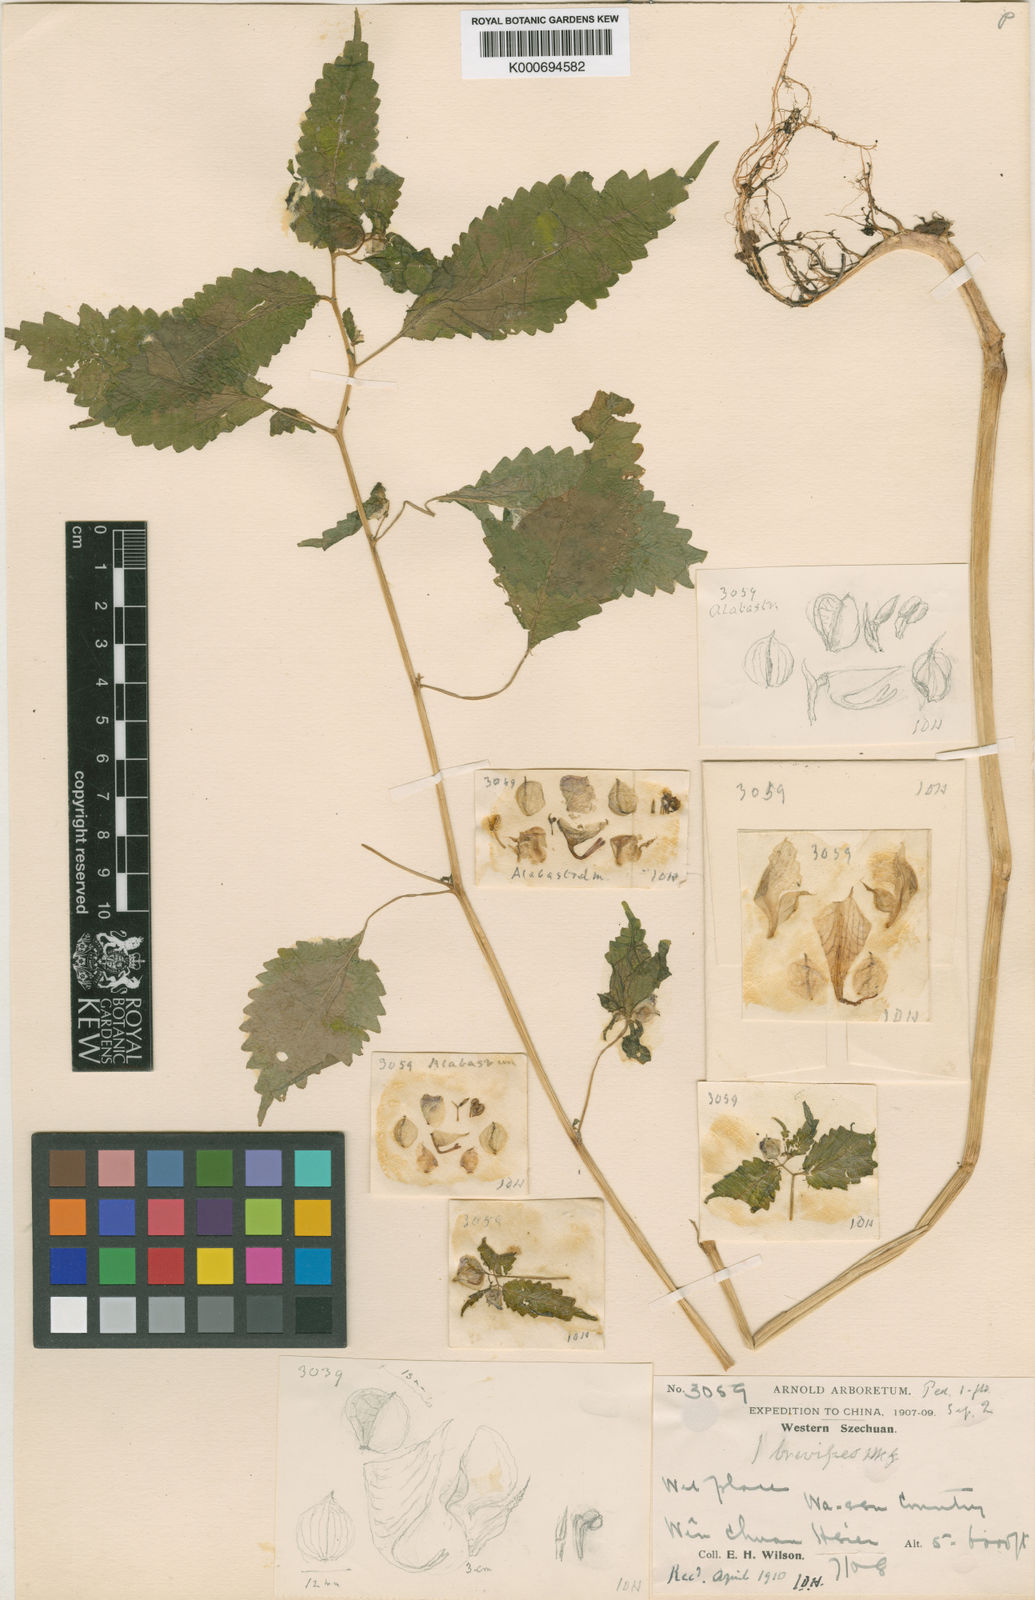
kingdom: Plantae
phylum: Tracheophyta
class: Magnoliopsida
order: Ericales
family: Balsaminaceae
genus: Impatiens
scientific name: Impatiens brevipes
